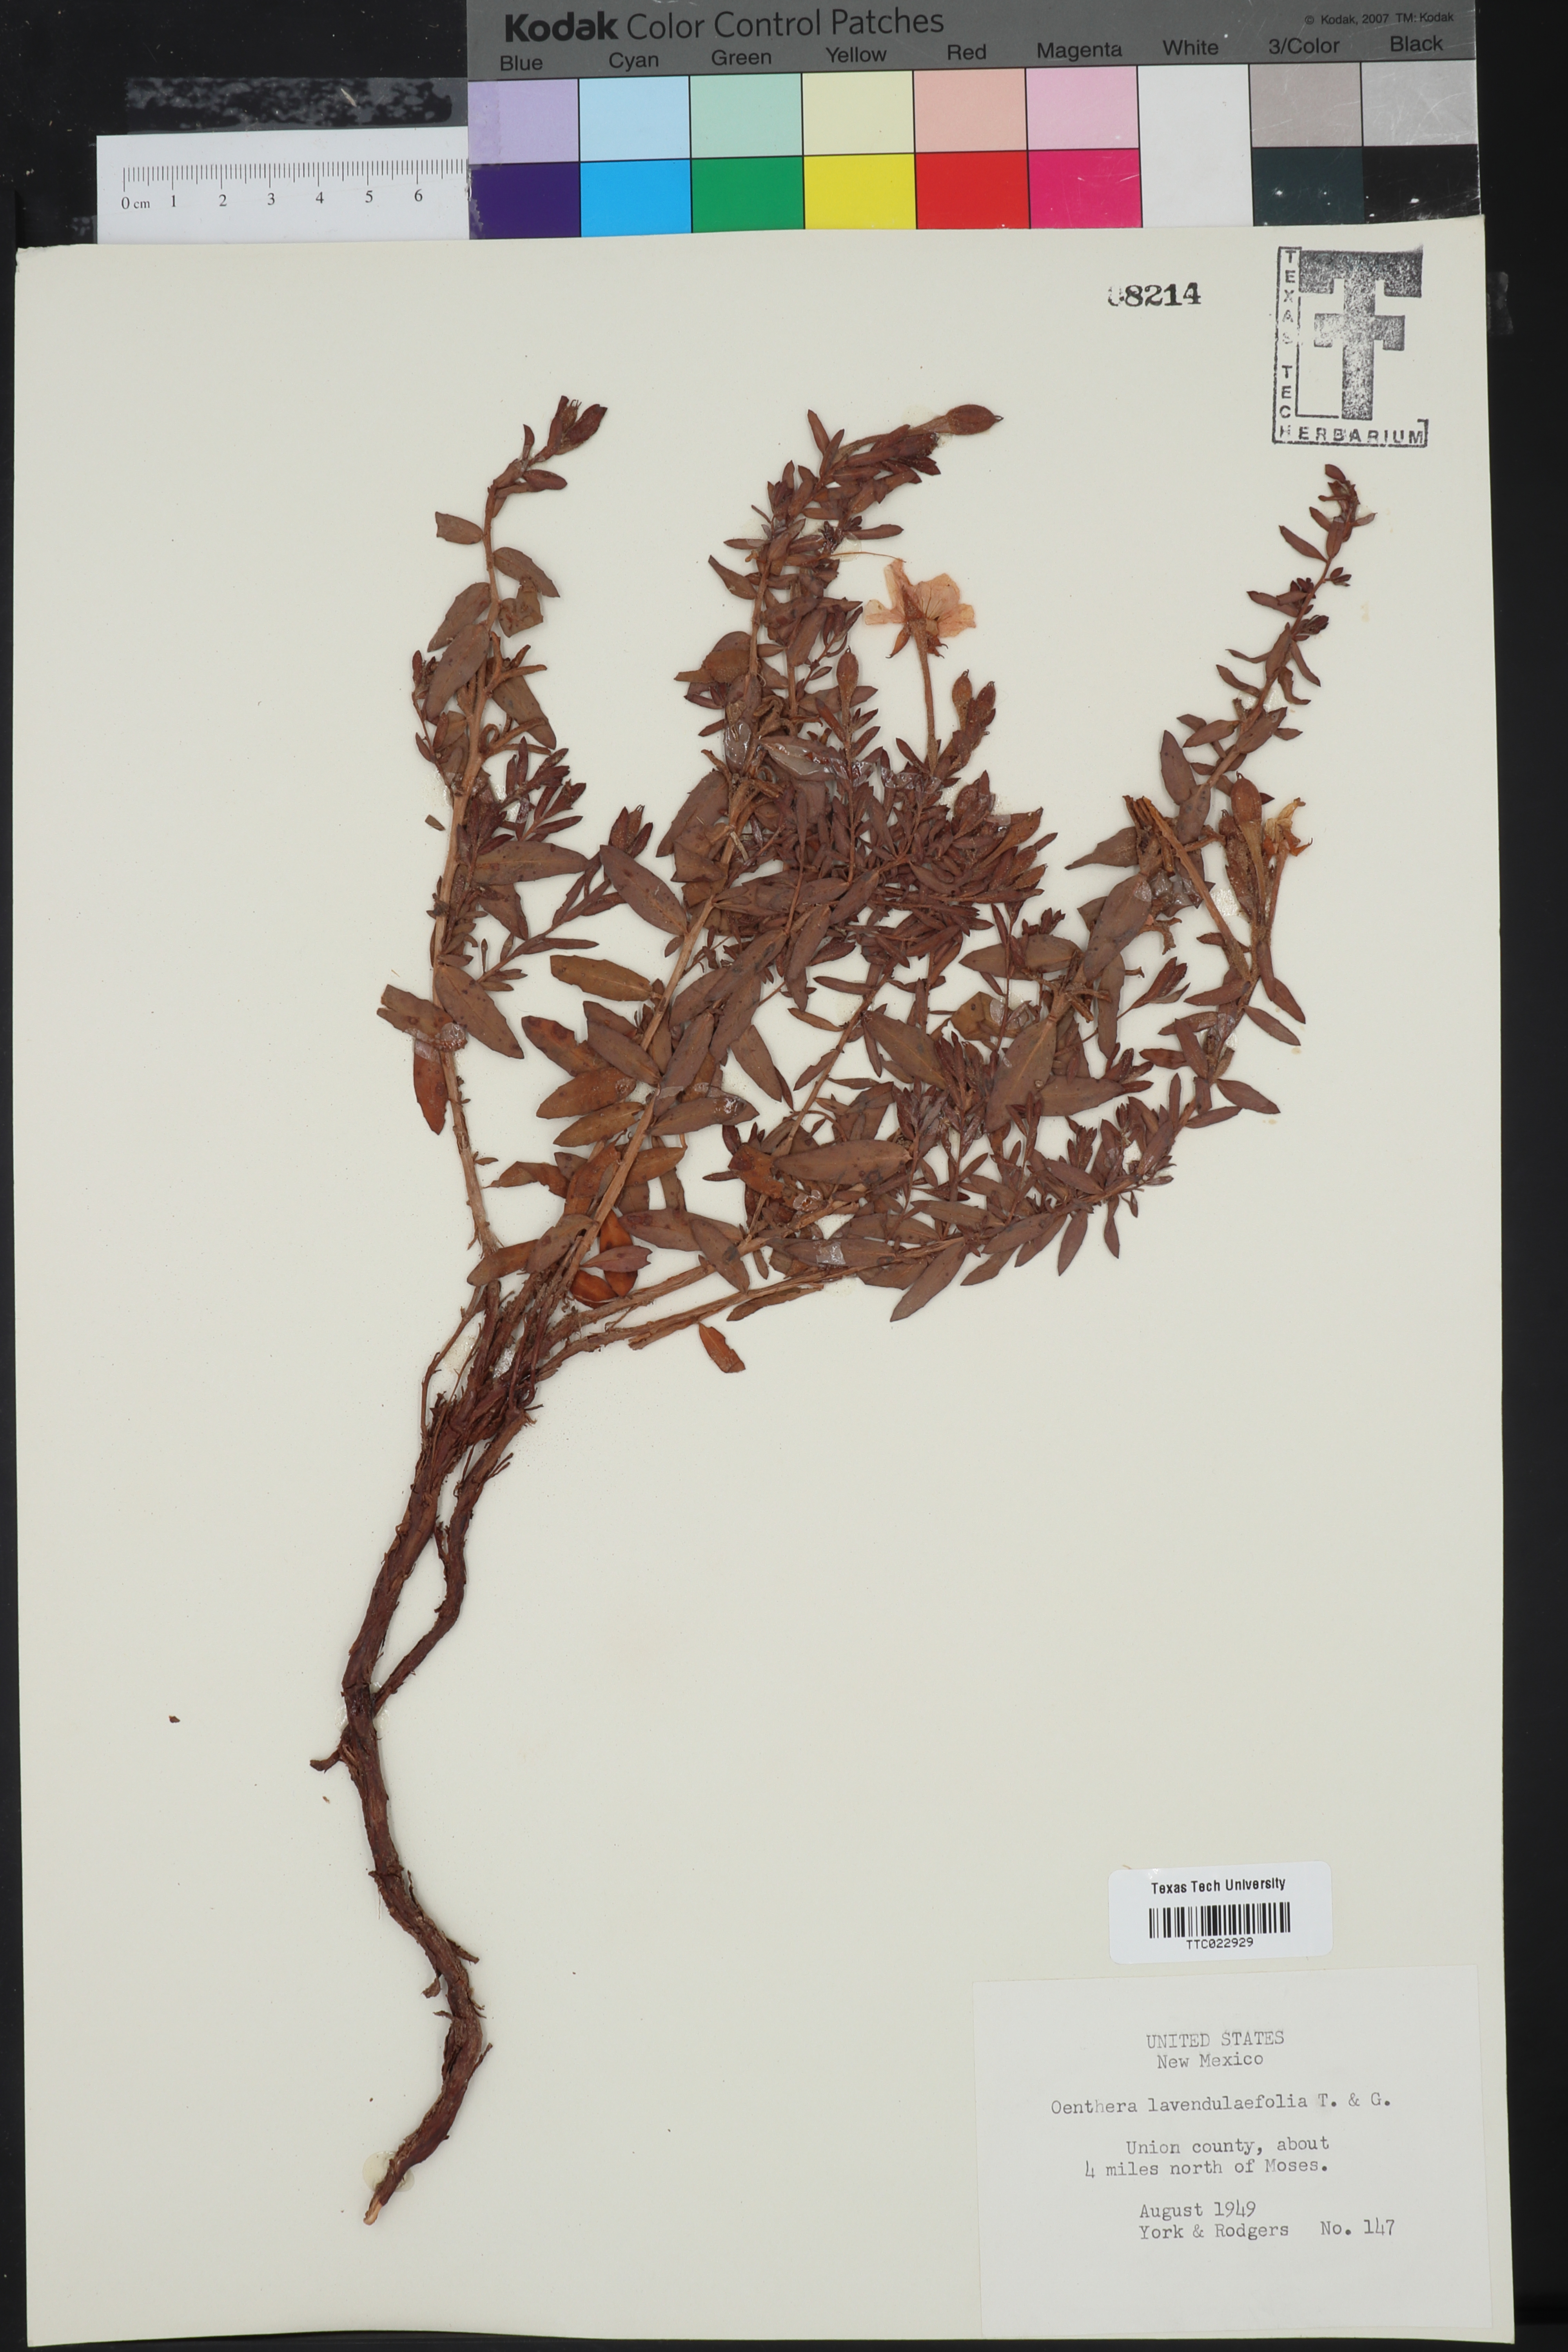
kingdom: Plantae
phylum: Tracheophyta
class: Magnoliopsida
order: Myrtales
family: Onagraceae
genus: Oenothera
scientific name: Oenothera lavandulifolia
